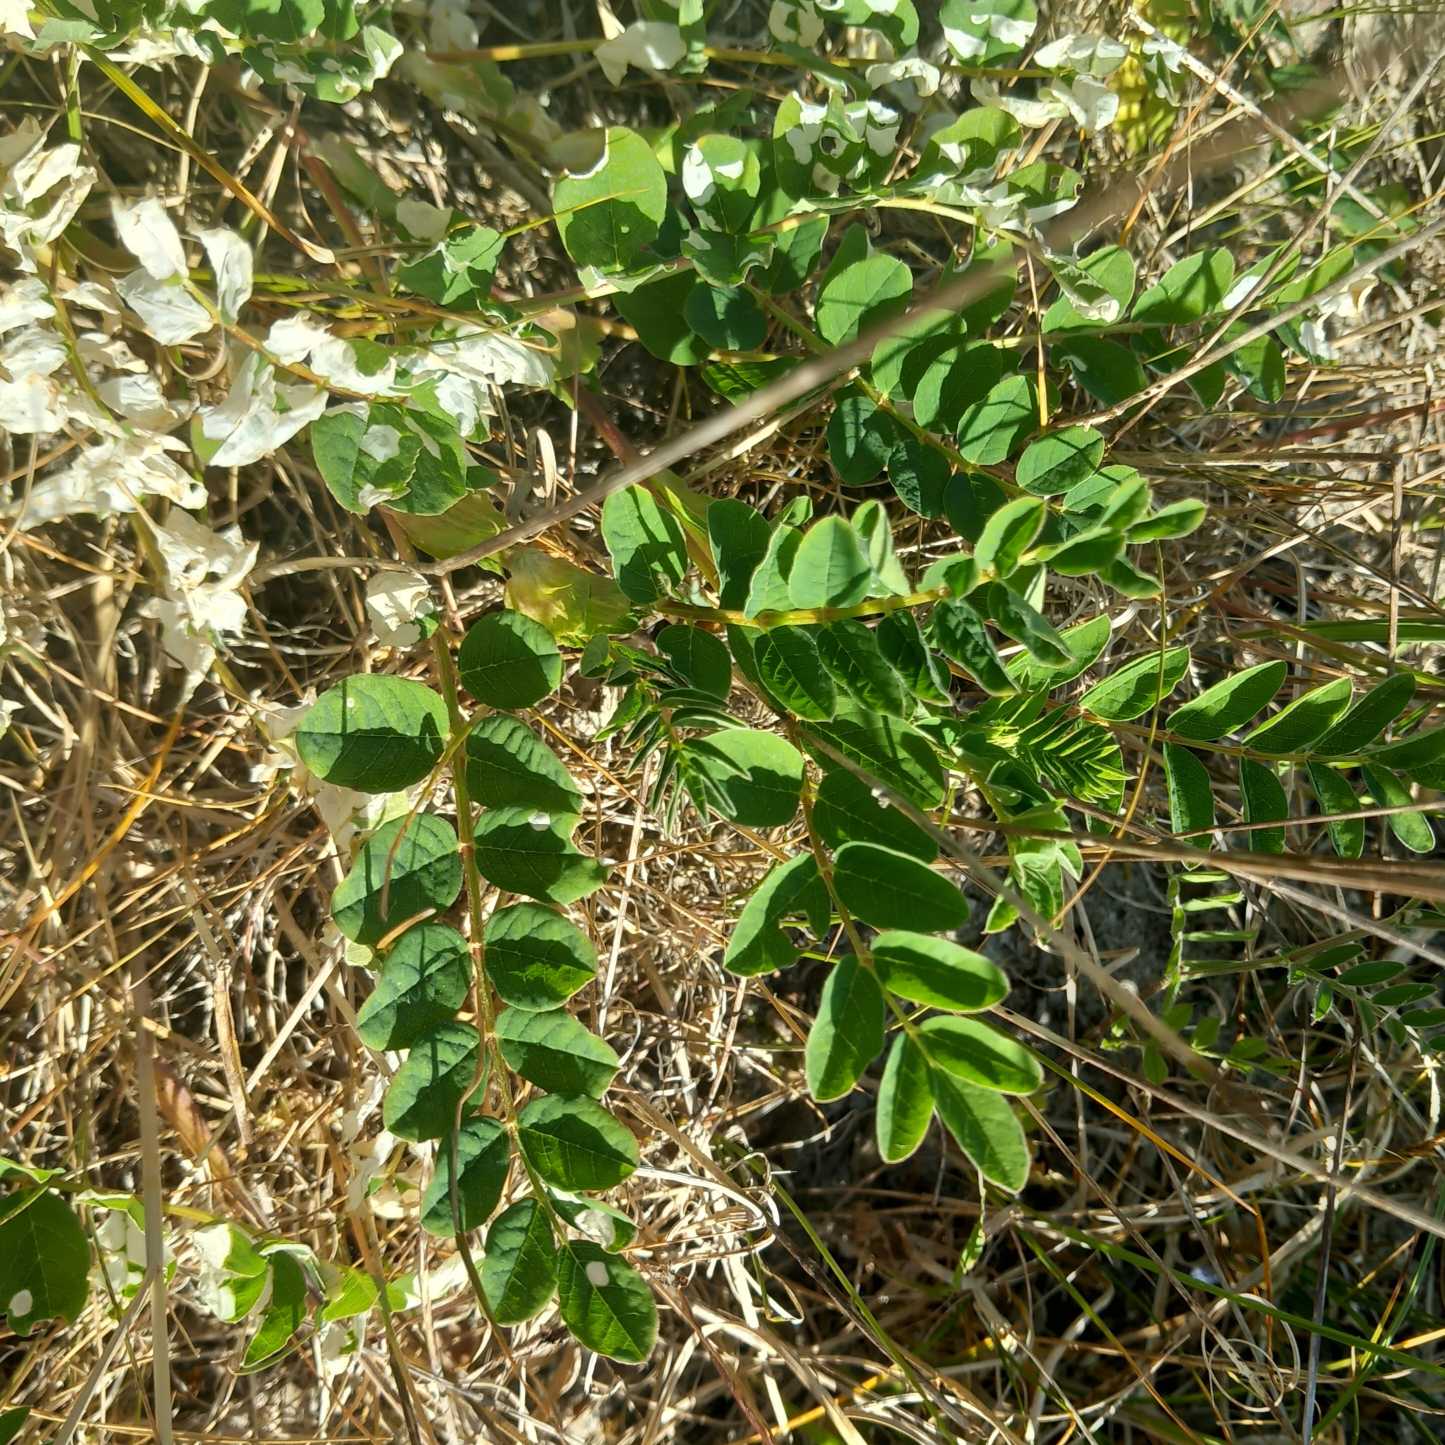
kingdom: Plantae
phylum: Tracheophyta
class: Magnoliopsida
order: Fabales
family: Fabaceae
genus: Astragalus
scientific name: Astragalus glycyphyllos
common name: Sød astragel
